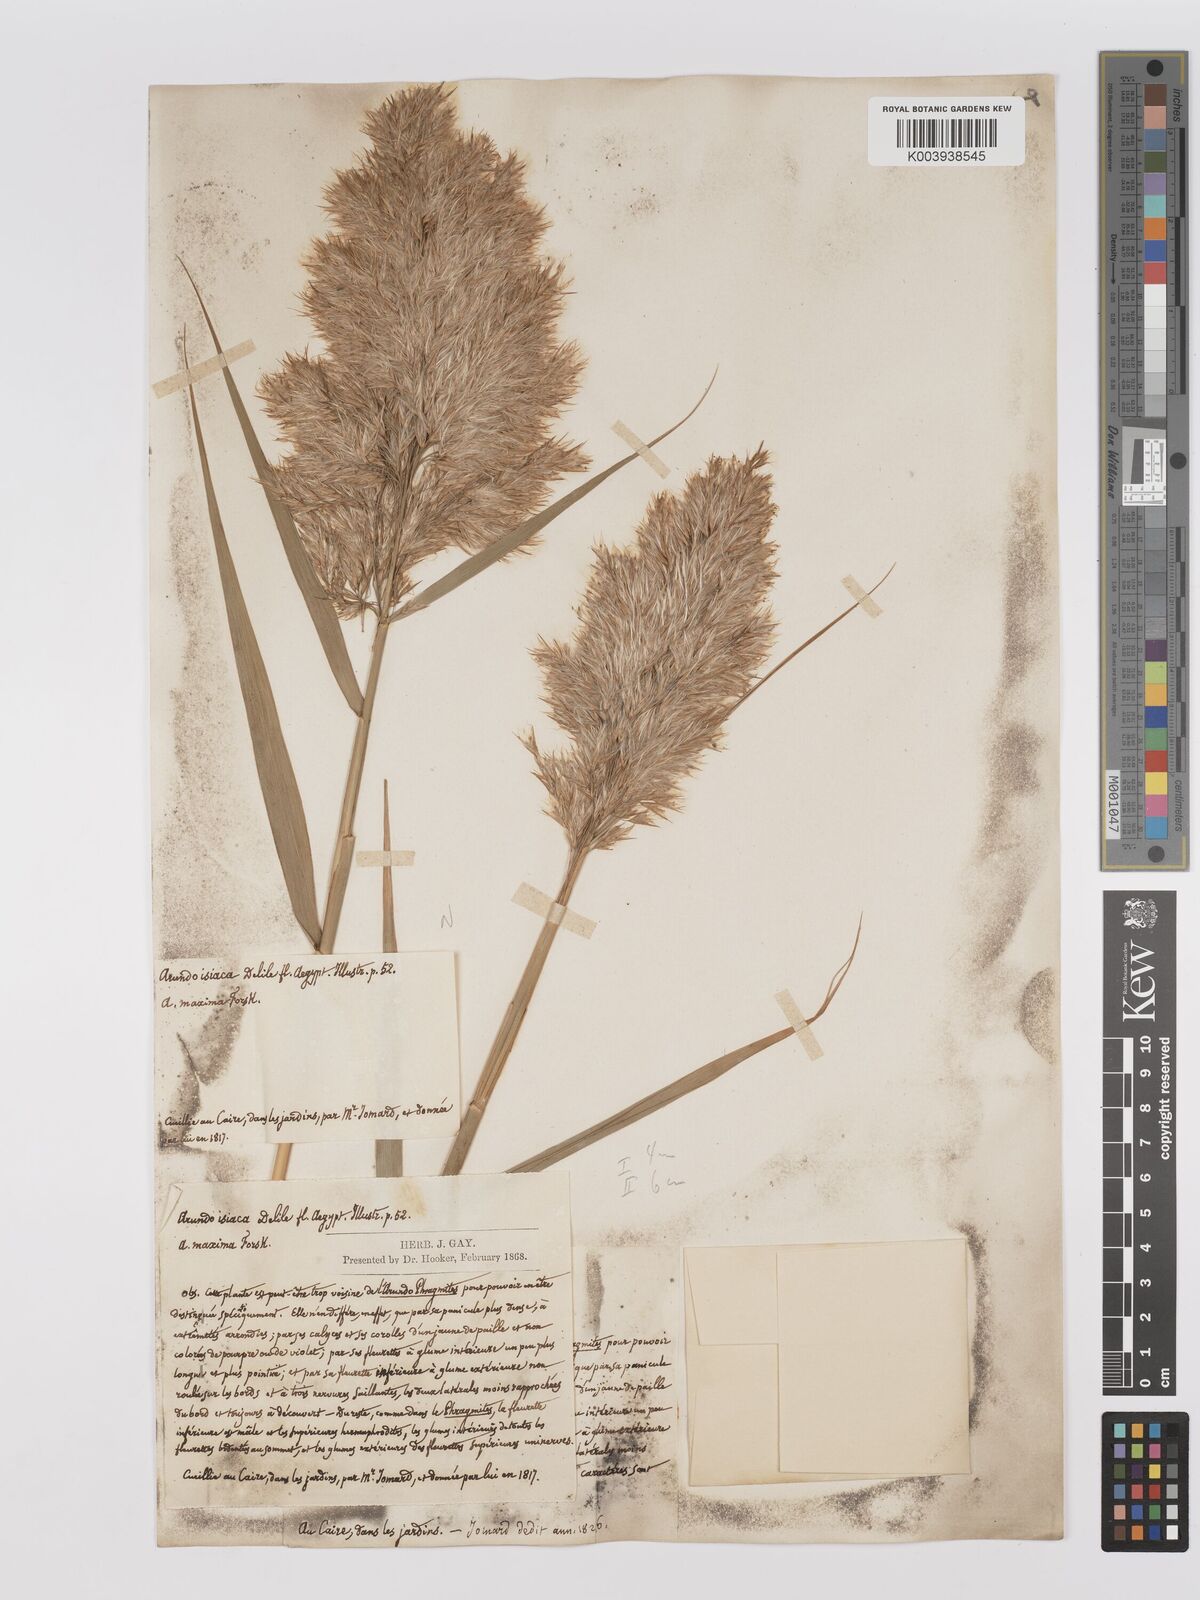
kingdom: Plantae
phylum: Tracheophyta
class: Liliopsida
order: Poales
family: Poaceae
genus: Phragmites
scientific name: Phragmites australis
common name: Common reed
